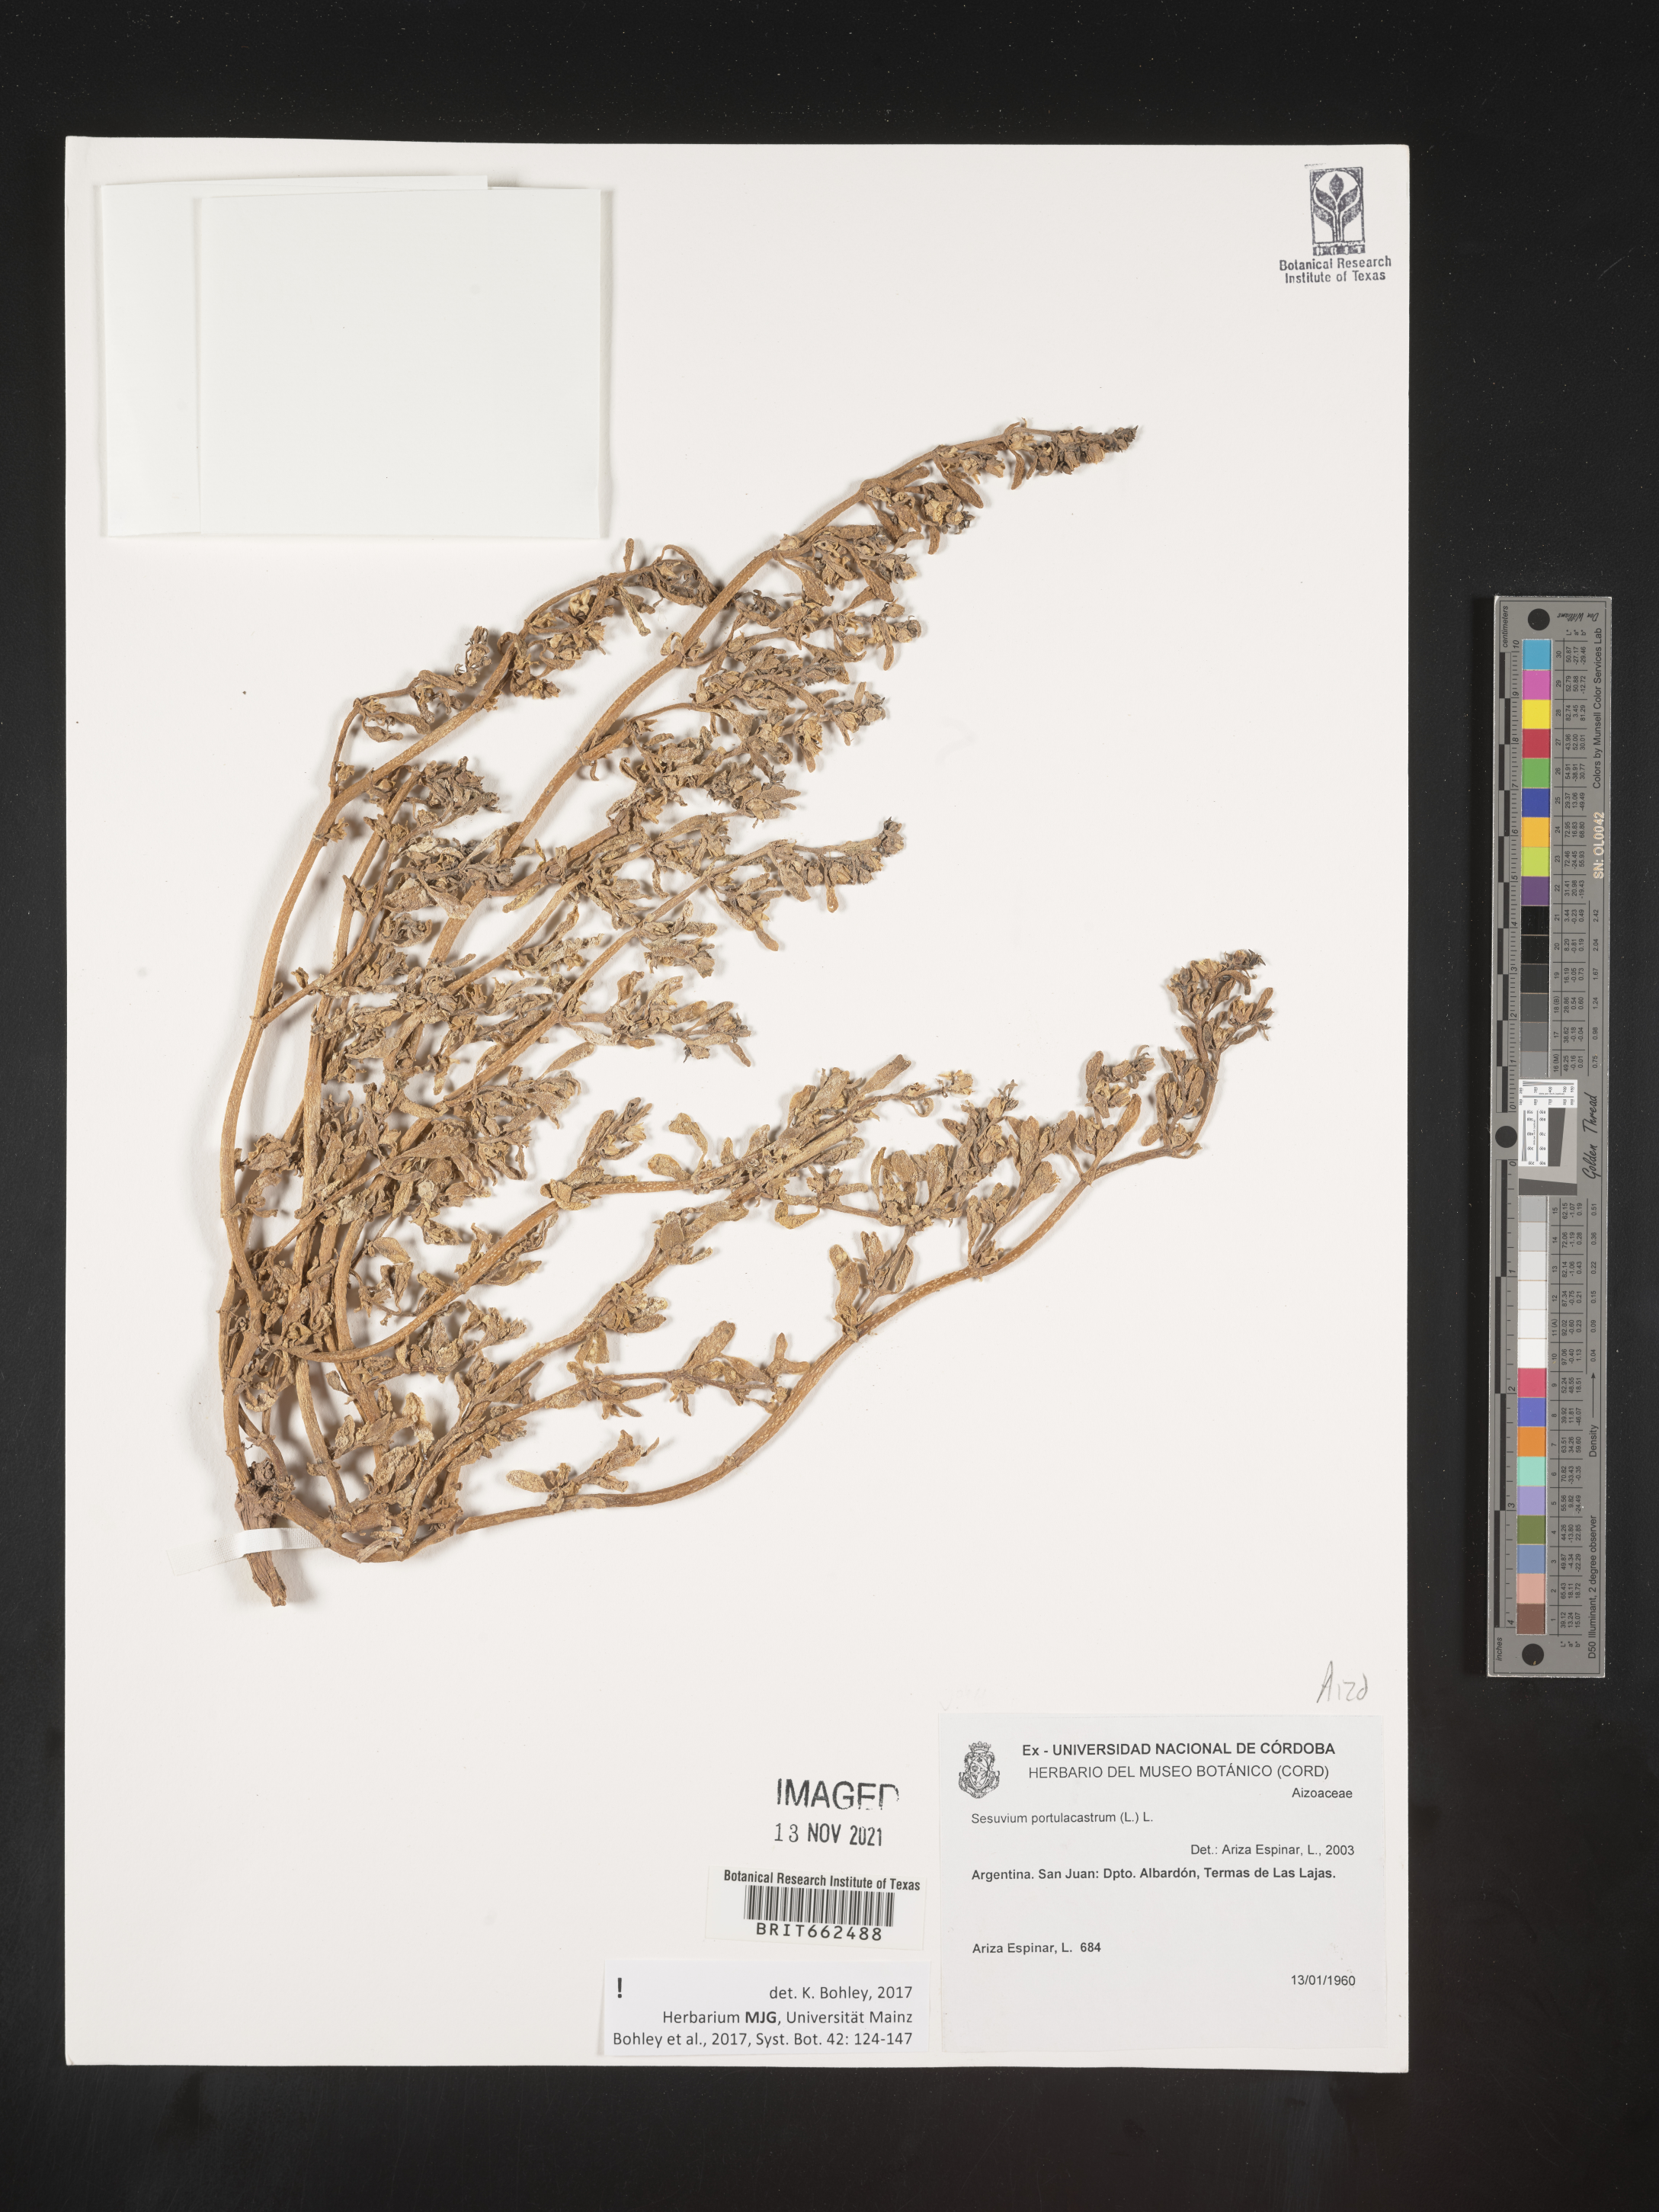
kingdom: Plantae
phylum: Tracheophyta
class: Magnoliopsida
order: Caryophyllales
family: Aizoaceae
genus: Sesuvium
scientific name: Sesuvium
